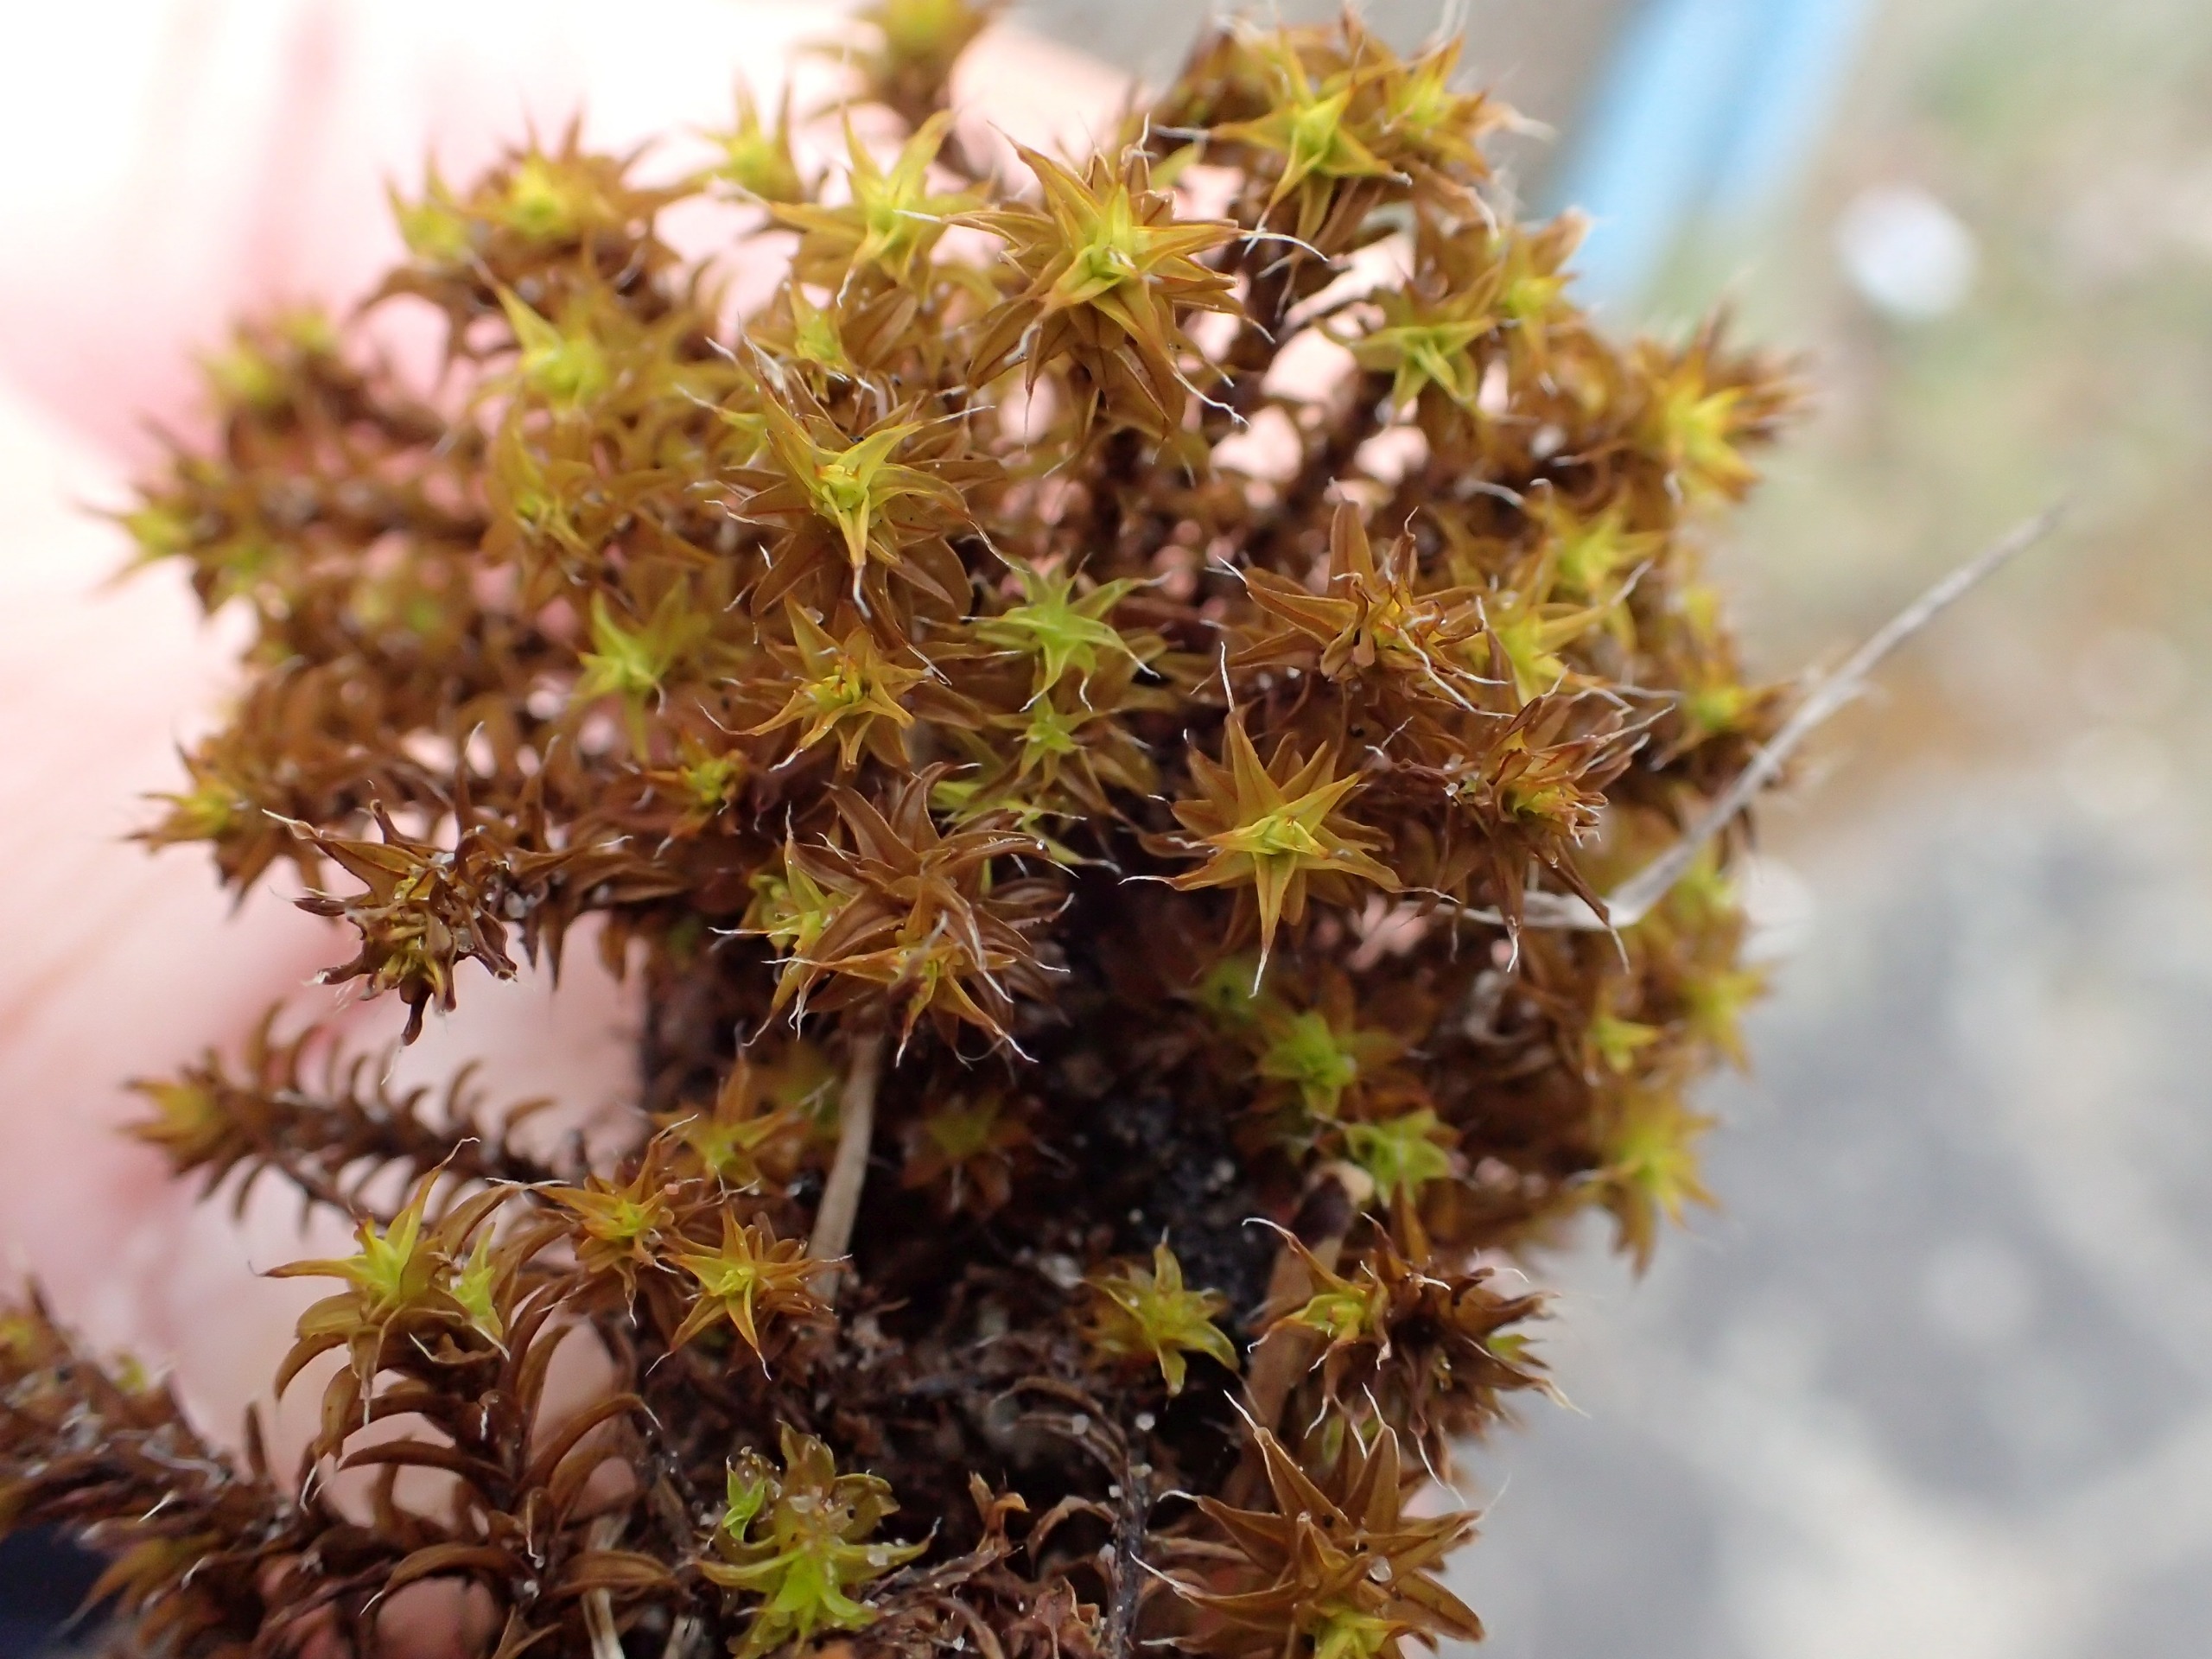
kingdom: Plantae
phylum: Bryophyta
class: Bryopsida
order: Pottiales
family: Pottiaceae
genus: Syntrichia
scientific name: Syntrichia ruralis
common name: Spidsbladet hårstjerne
